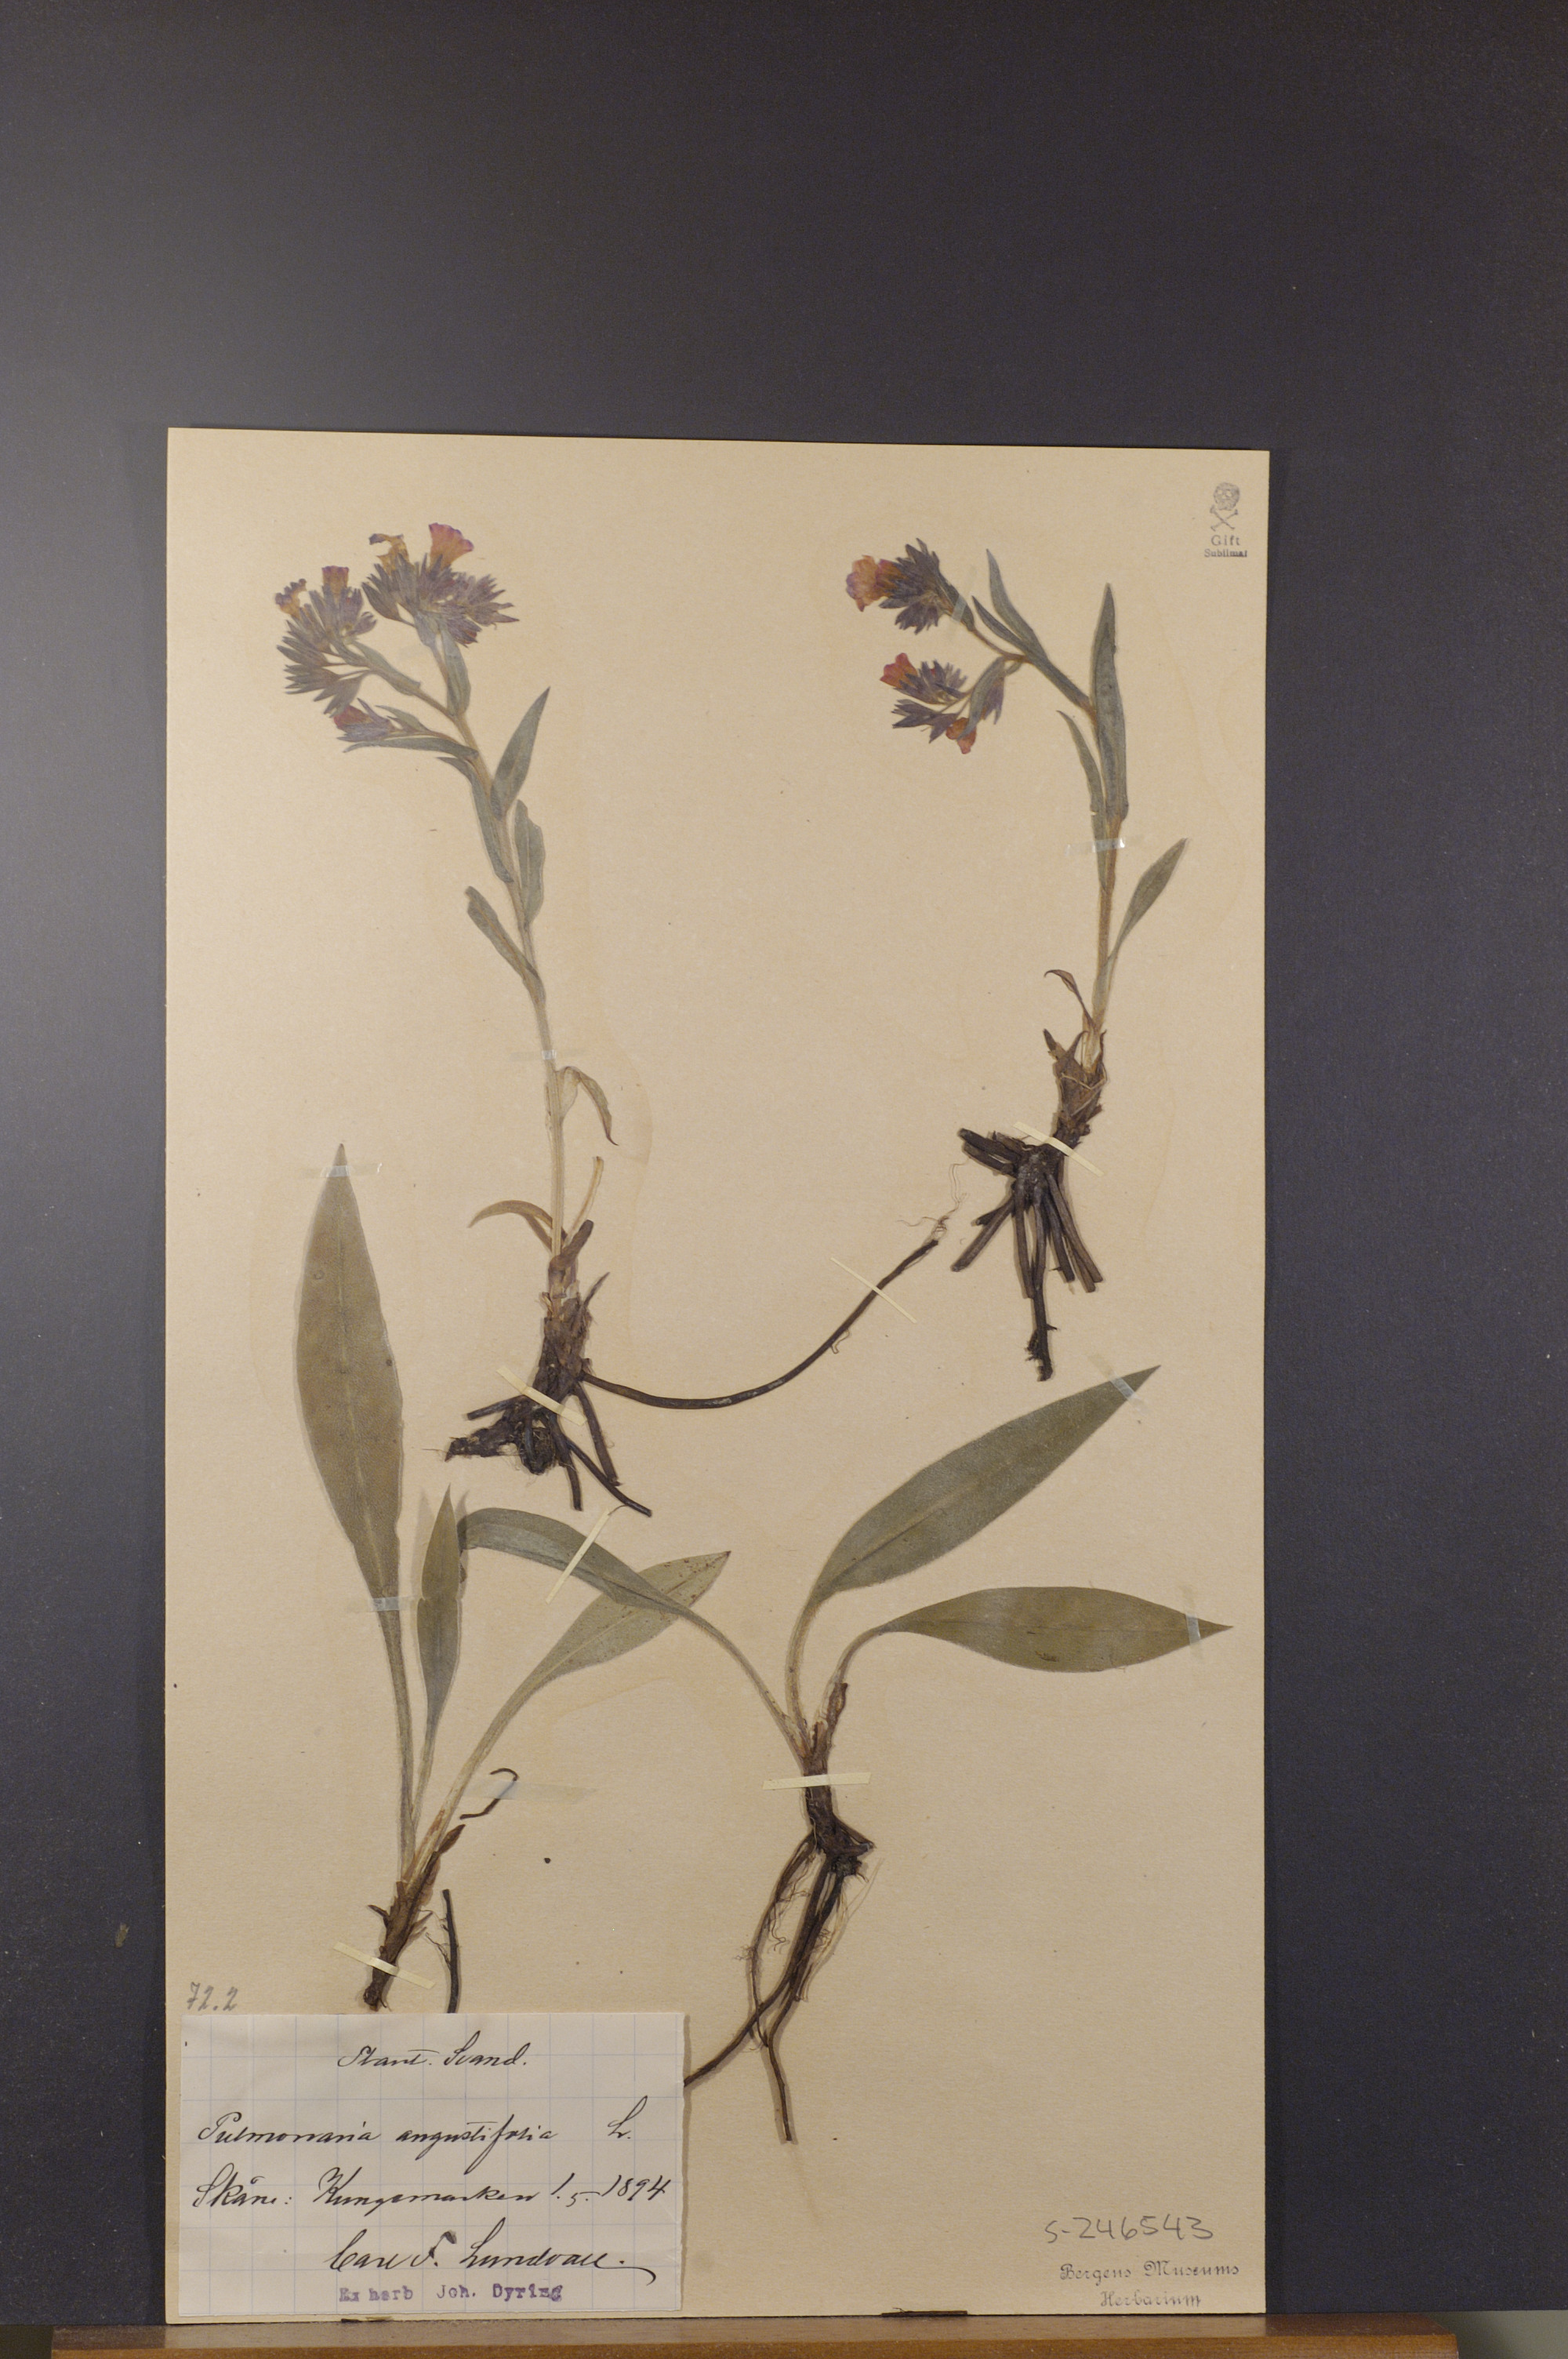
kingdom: Plantae
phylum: Tracheophyta
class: Magnoliopsida
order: Boraginales
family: Boraginaceae
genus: Pulmonaria
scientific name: Pulmonaria angustifolia
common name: Blue cowslip
